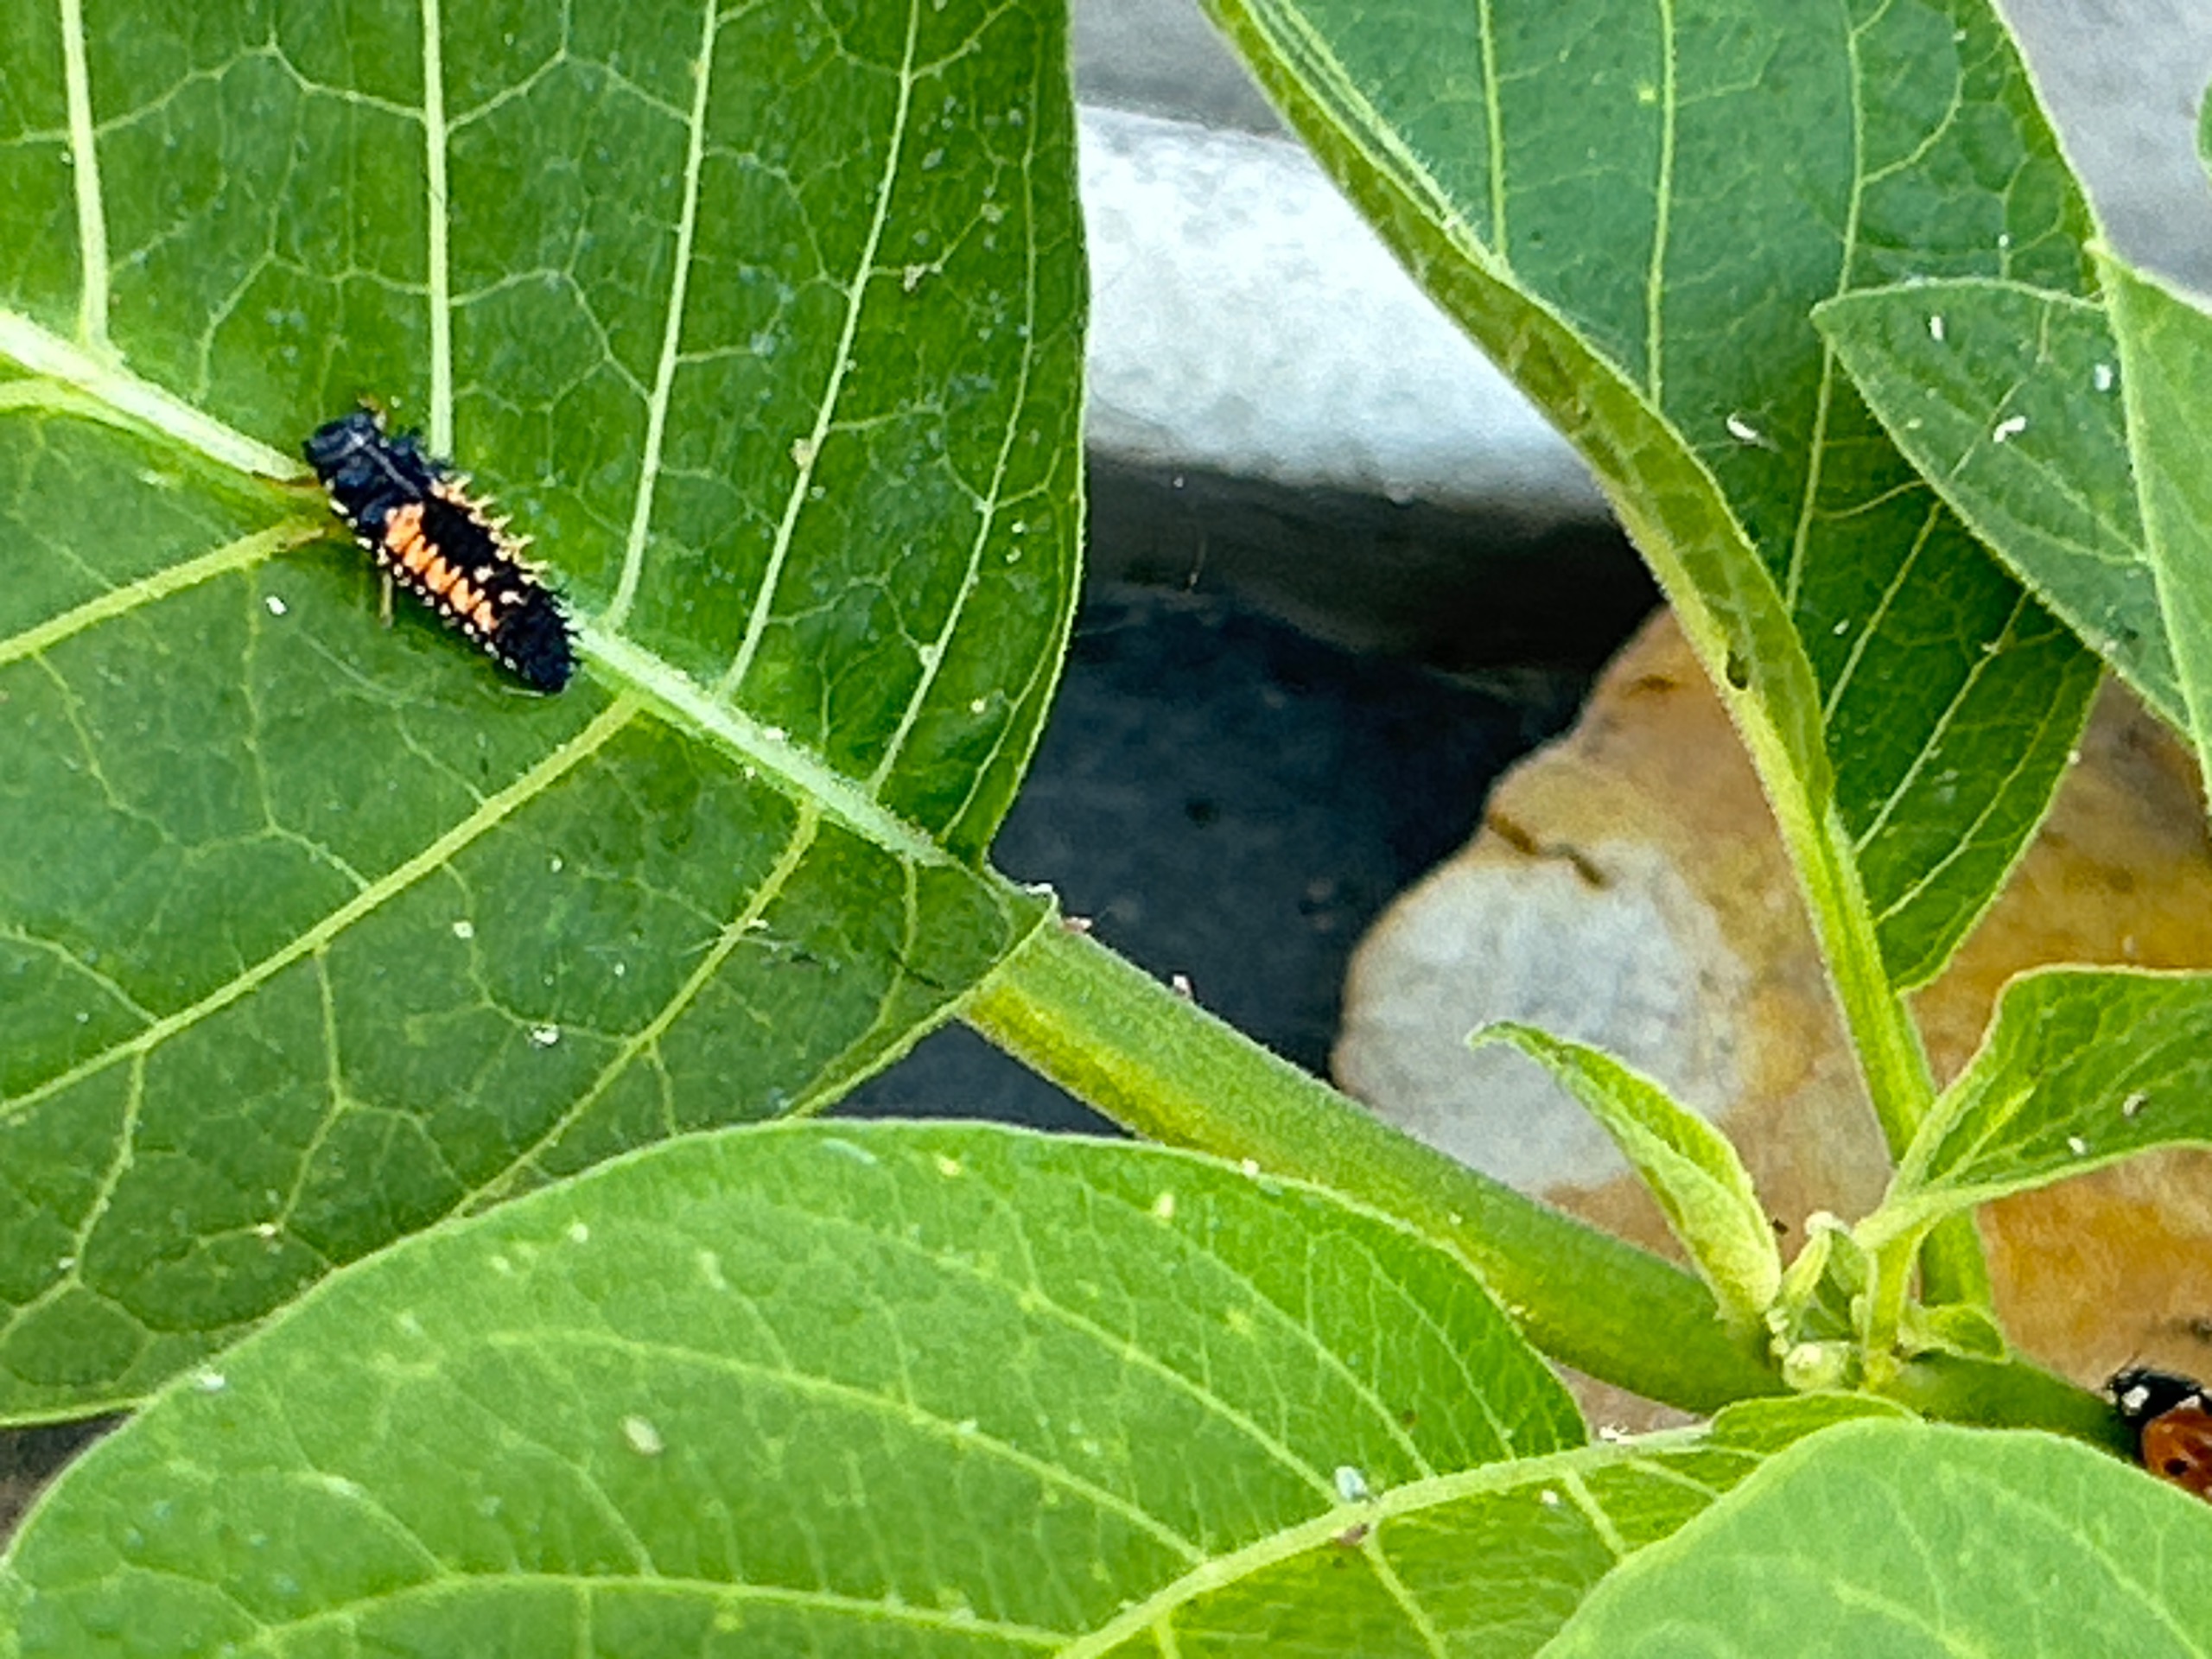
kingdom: Animalia
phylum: Arthropoda
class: Insecta
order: Coleoptera
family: Coccinellidae
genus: Harmonia
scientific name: Harmonia axyridis
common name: Harlekinmariehøne
